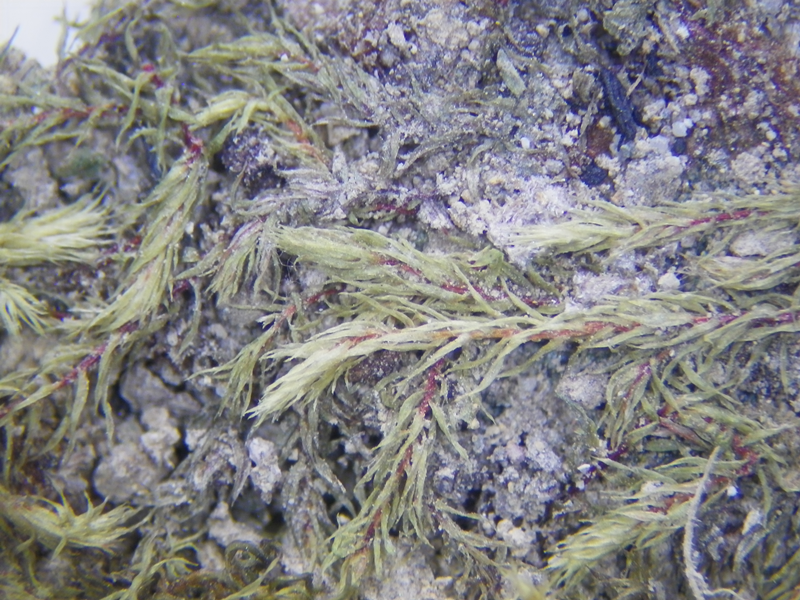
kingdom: Plantae
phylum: Bryophyta
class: Bryopsida
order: Dicranales
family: Ditrichaceae
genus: Ceratodon
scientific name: Ceratodon purpureus
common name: Redshank
